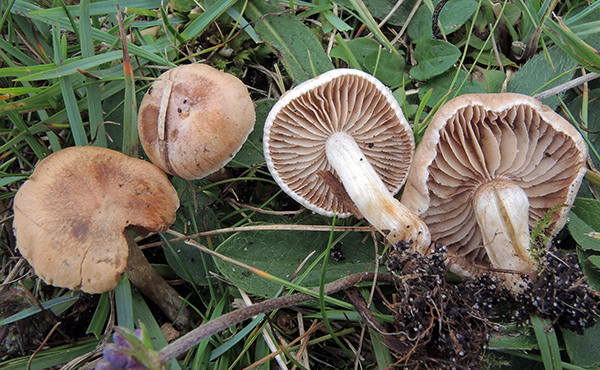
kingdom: Fungi
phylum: Basidiomycota
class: Agaricomycetes
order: Agaricales
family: Hymenogastraceae
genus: Hebeloma
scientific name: Hebeloma vaccinum
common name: ko-tåreblad
